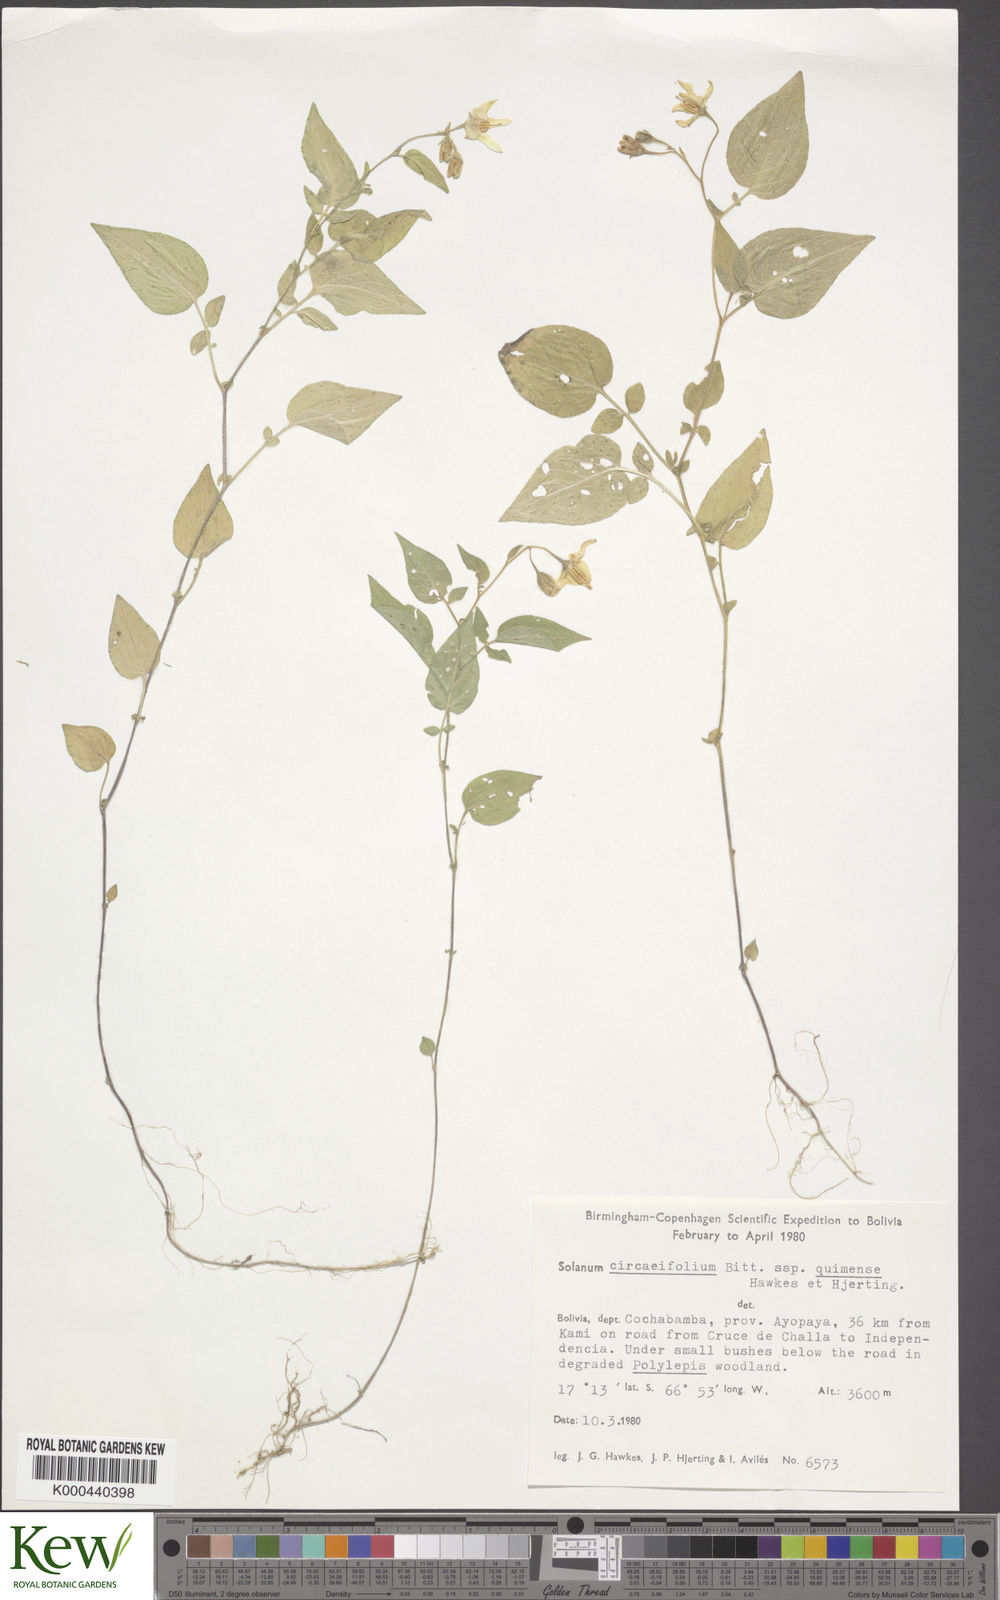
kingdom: Plantae
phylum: Tracheophyta
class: Magnoliopsida
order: Solanales
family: Solanaceae
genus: Solanum
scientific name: Solanum stipuloideum
